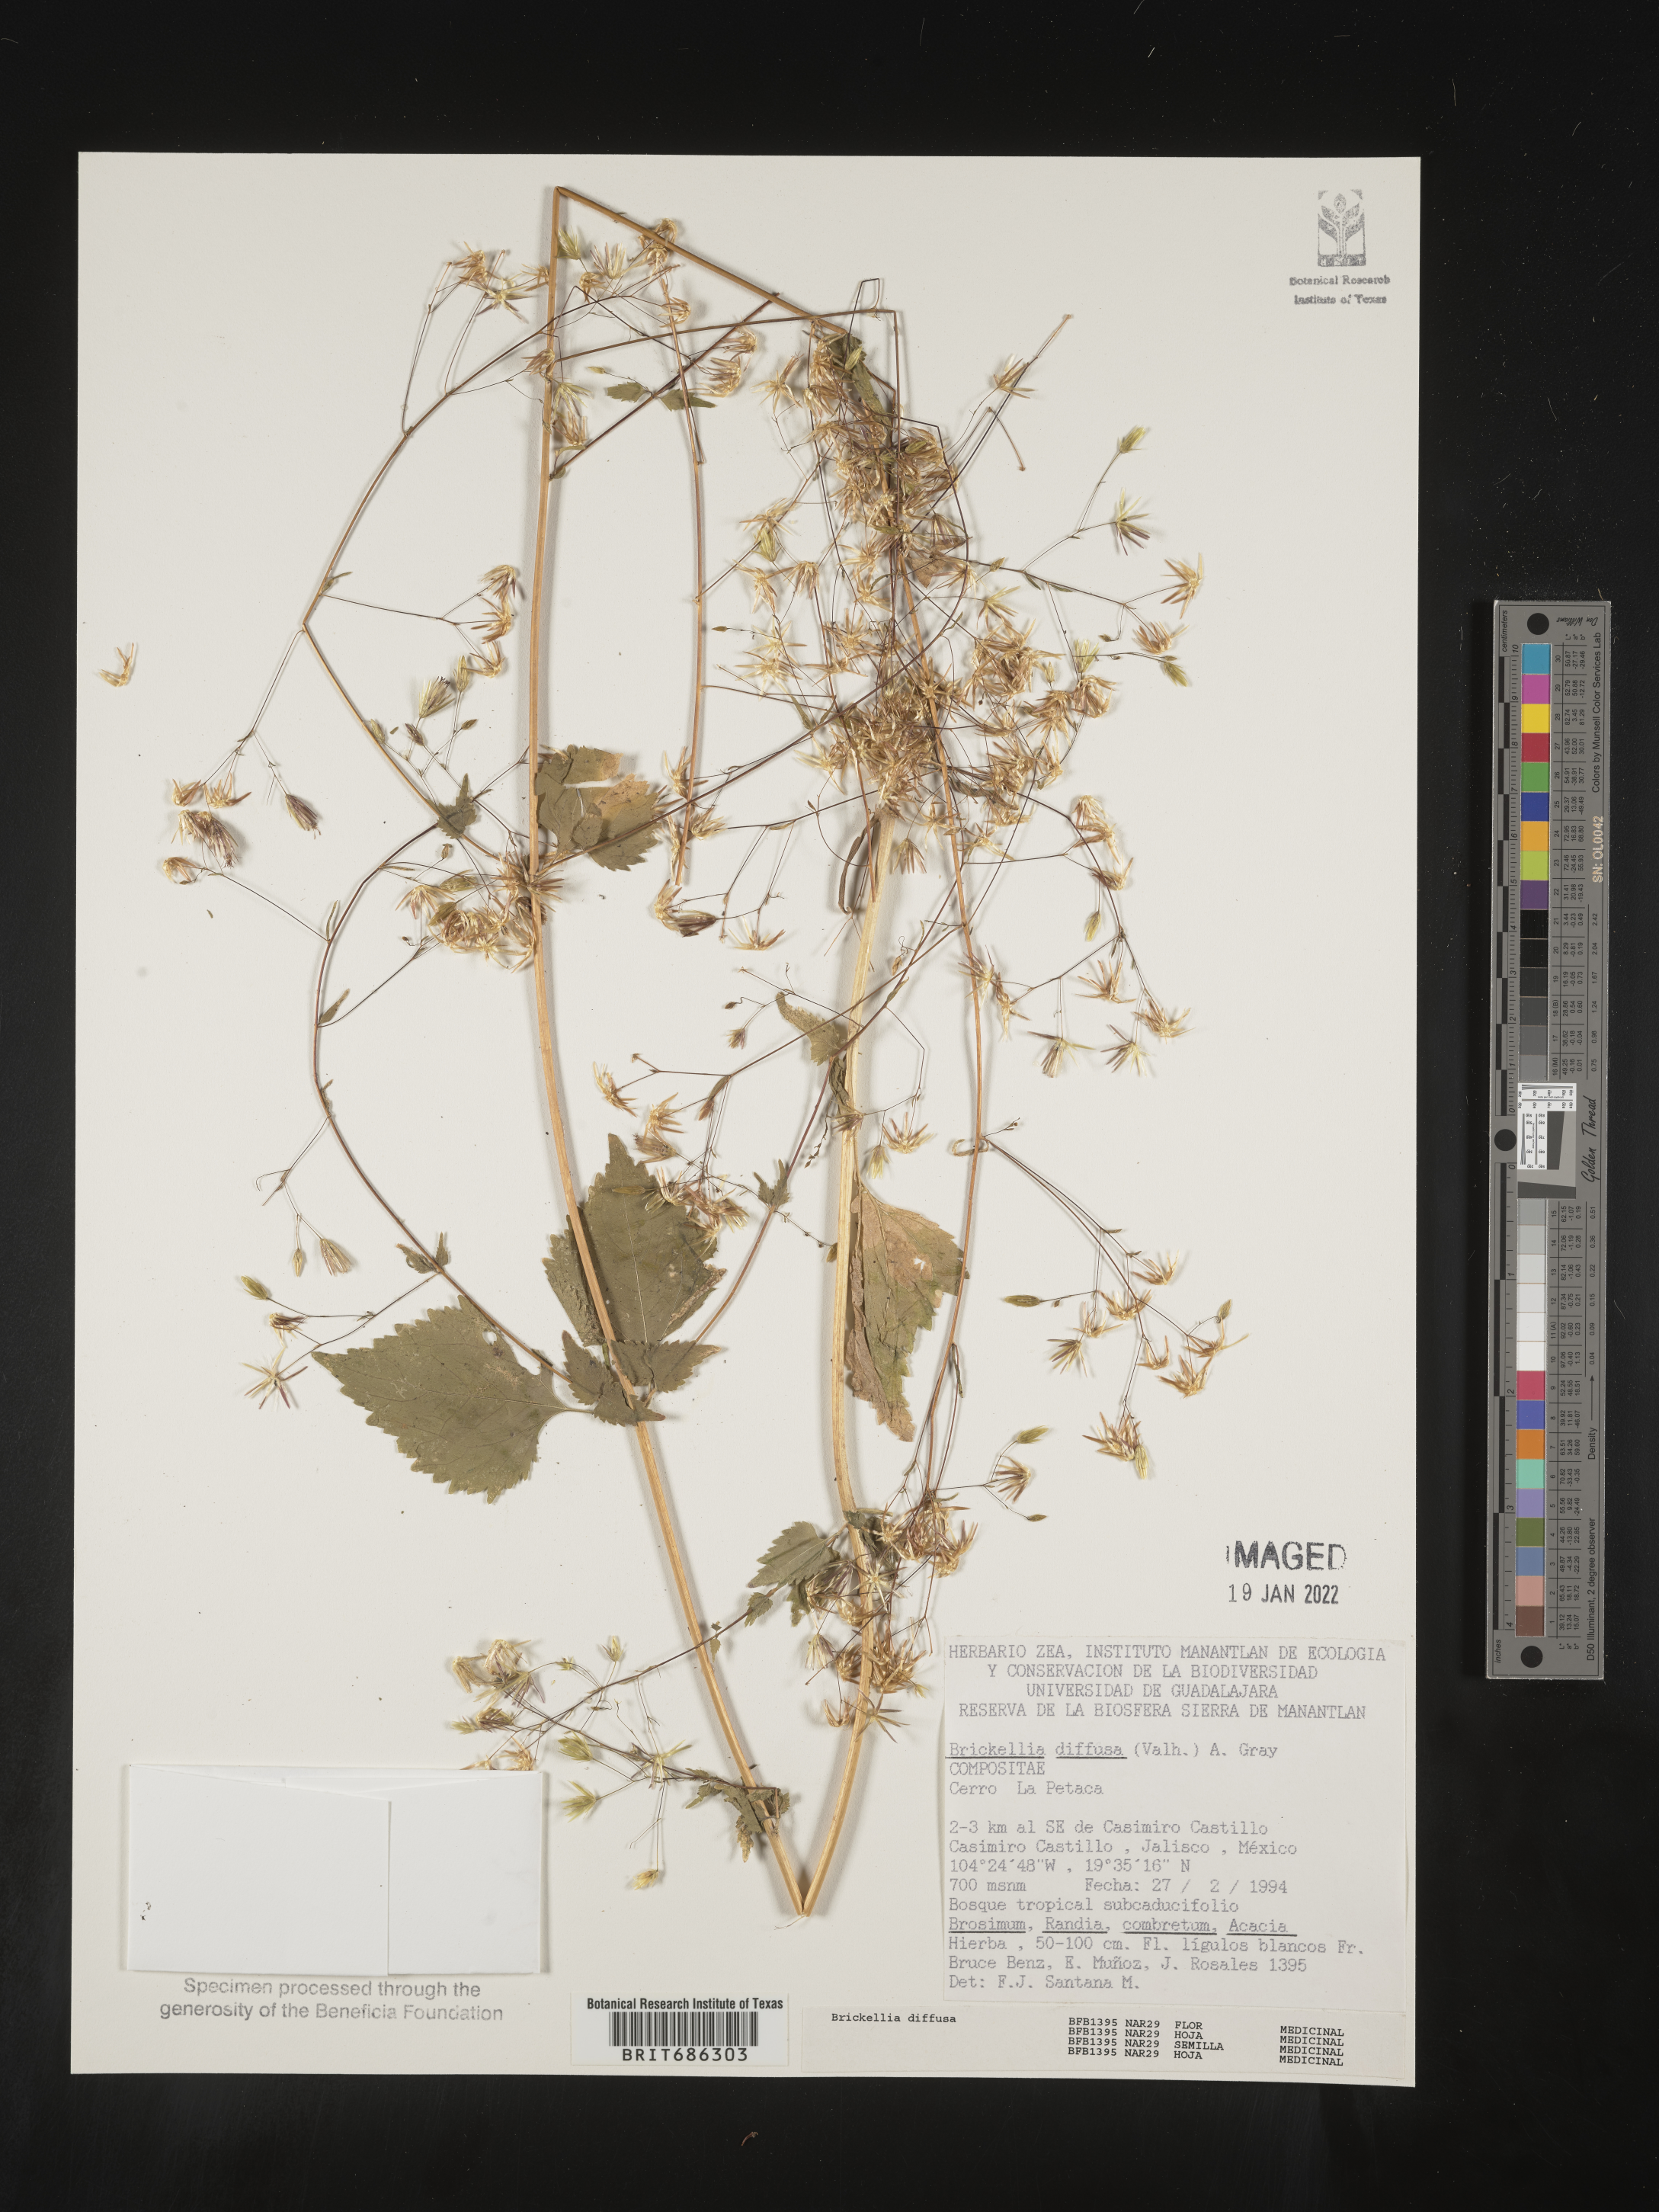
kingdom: Plantae
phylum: Tracheophyta
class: Magnoliopsida
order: Asterales
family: Asteraceae
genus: Brickellia
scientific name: Brickellia diffusa
